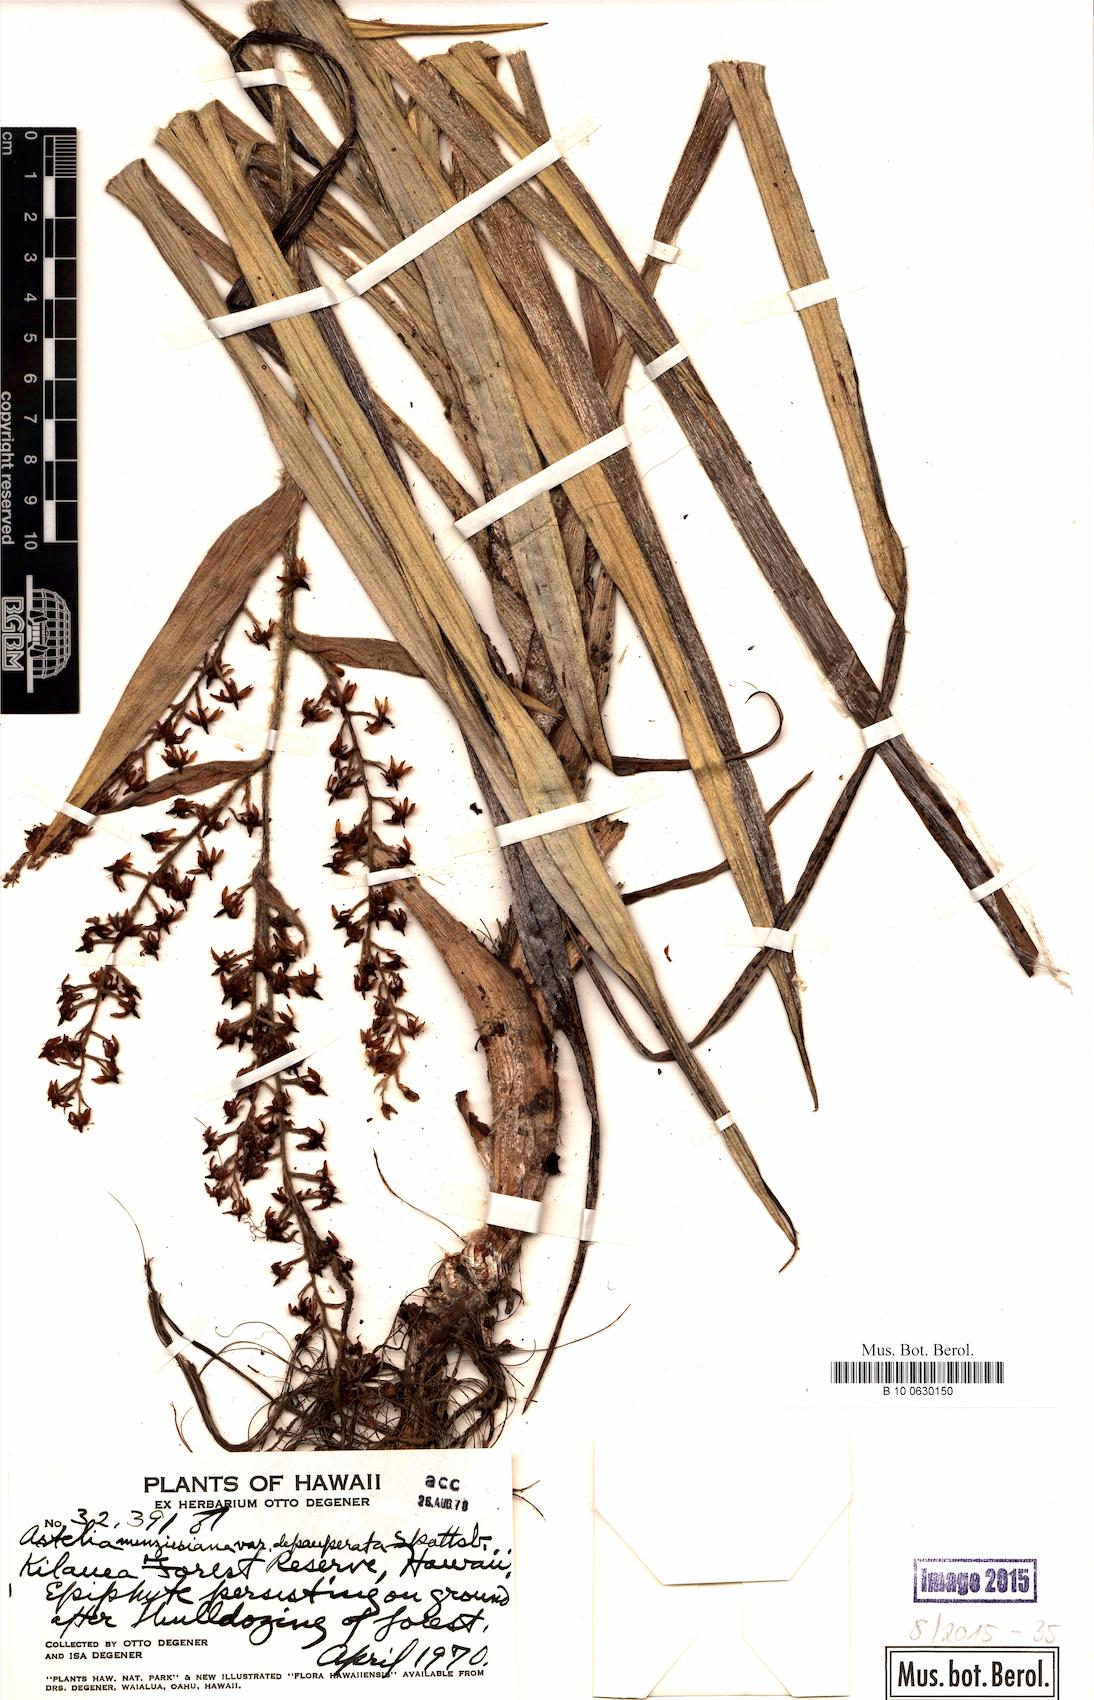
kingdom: Plantae
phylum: Tracheophyta
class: Liliopsida
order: Asparagales
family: Asteliaceae
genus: Astelia
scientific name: Astelia menziesiana
